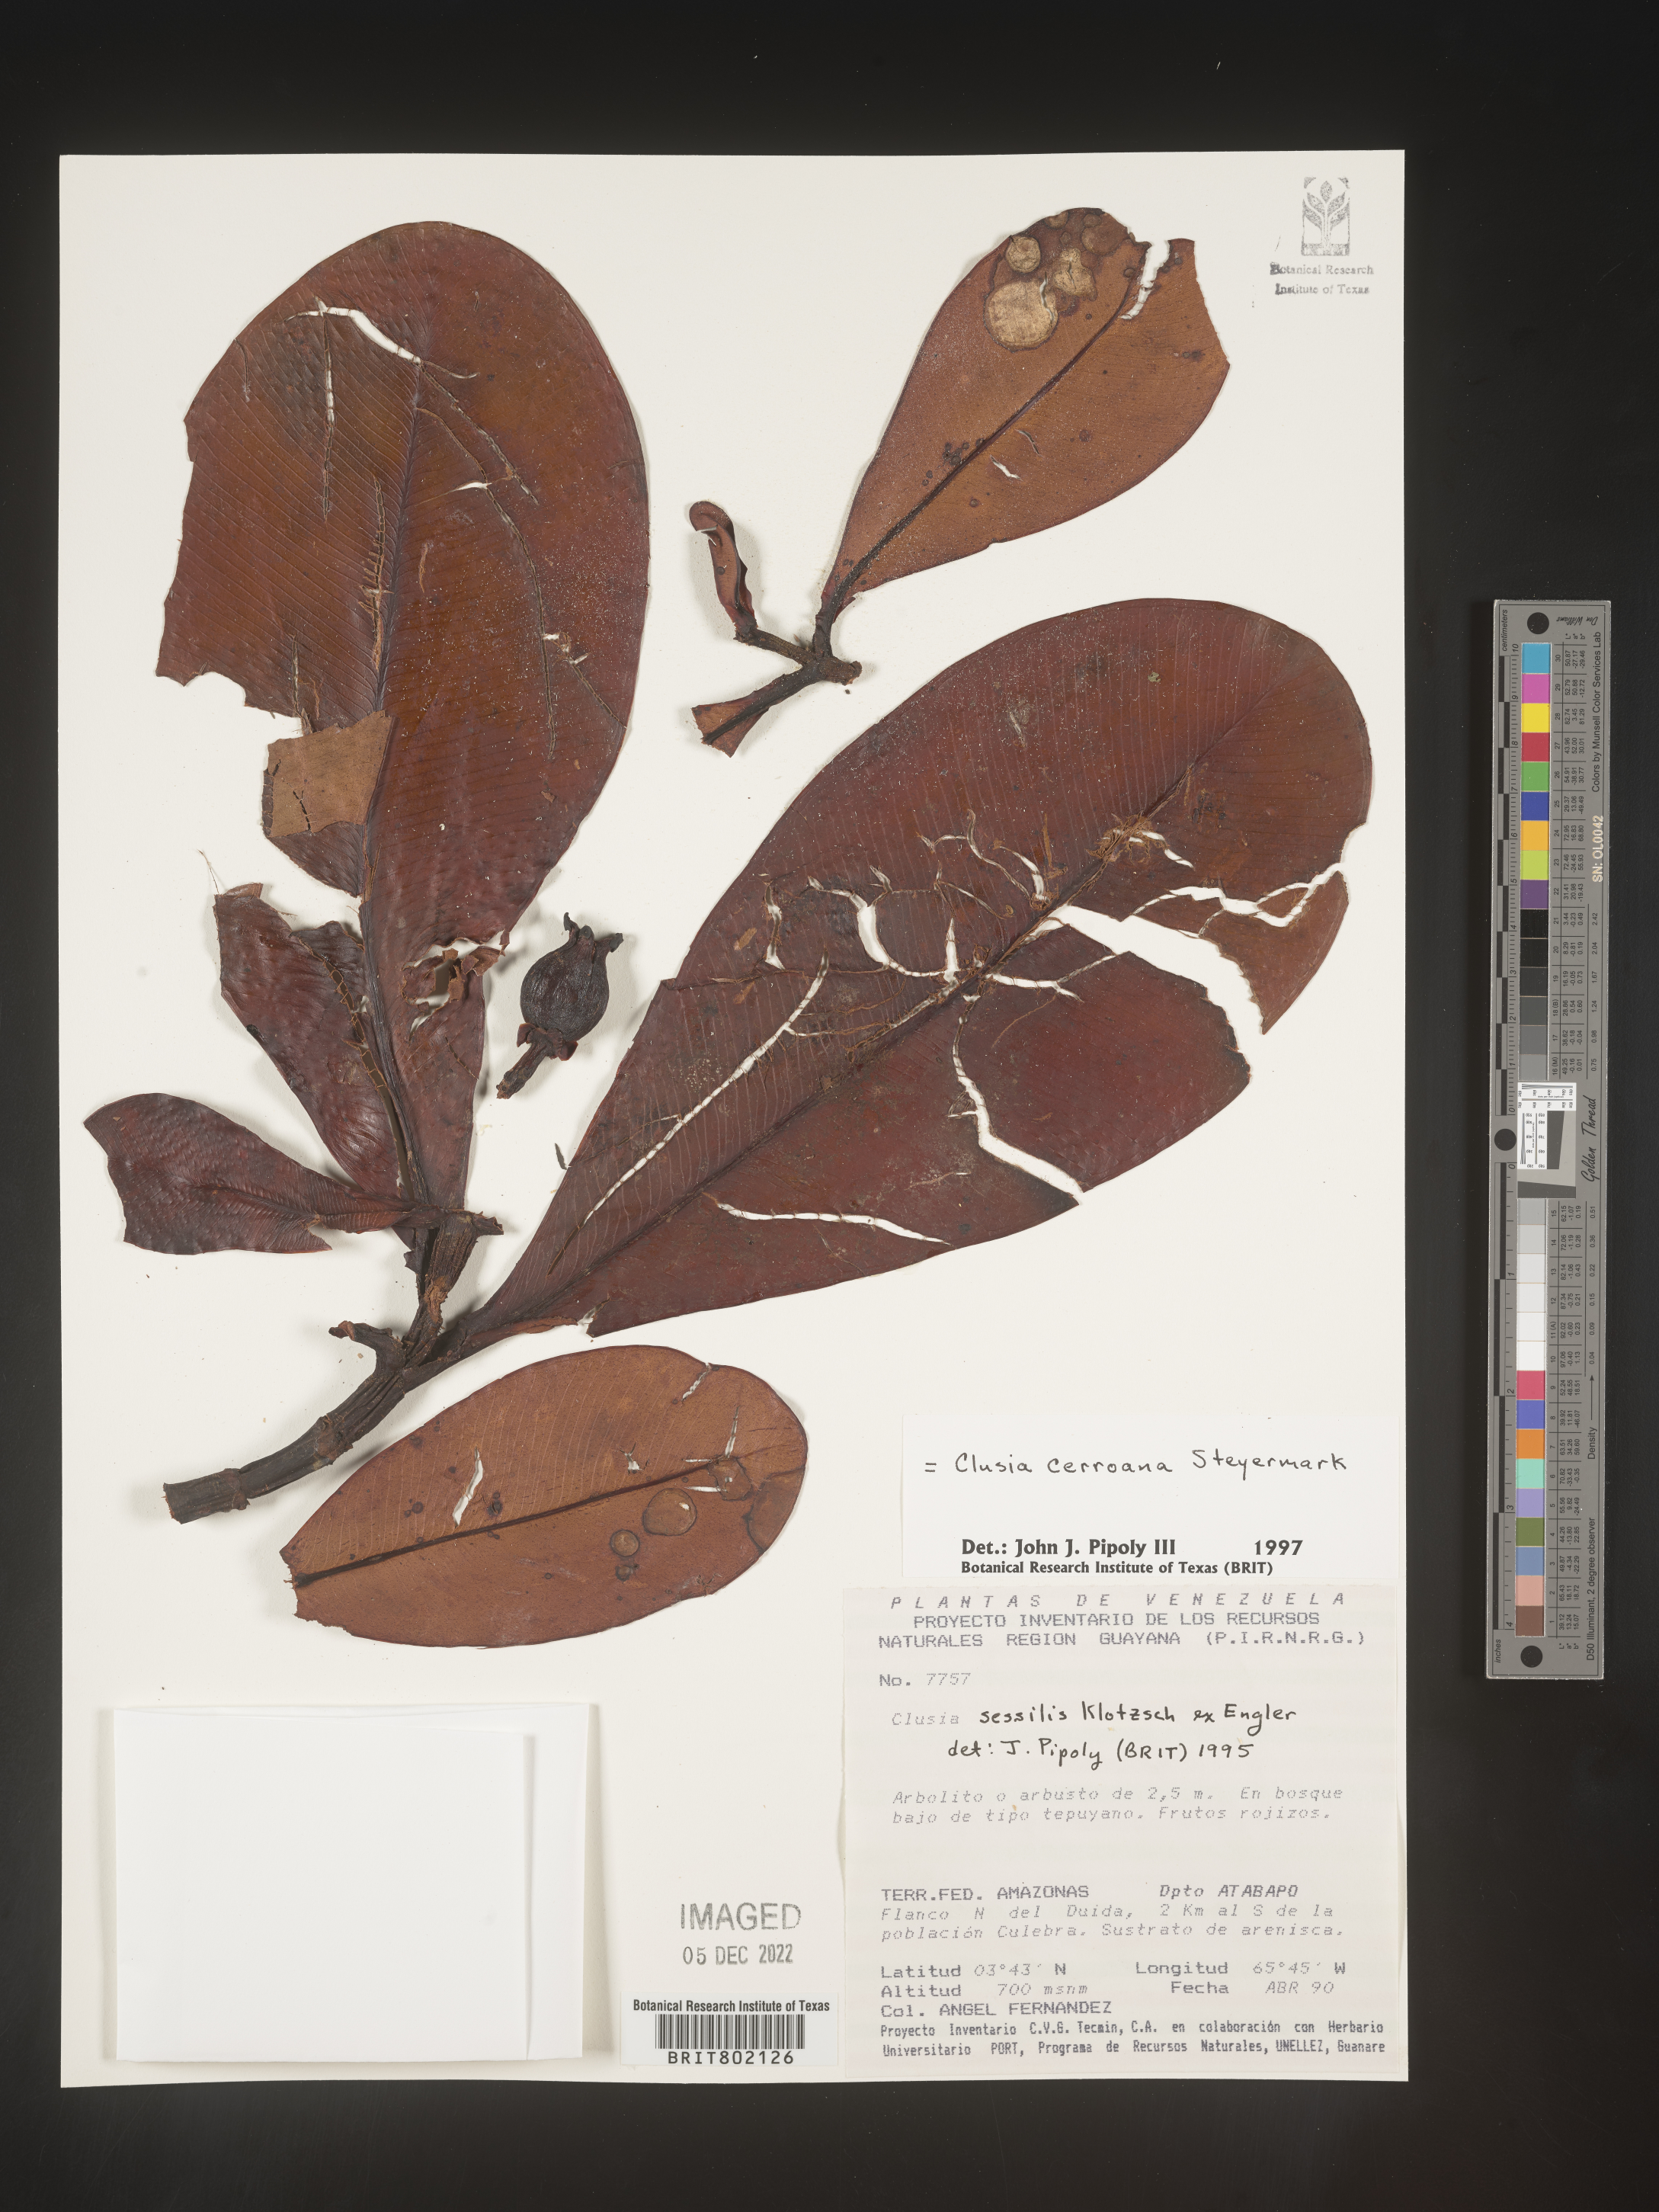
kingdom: Plantae
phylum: Tracheophyta
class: Magnoliopsida
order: Malpighiales
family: Clusiaceae
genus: Clusia
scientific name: Clusia cerroana
